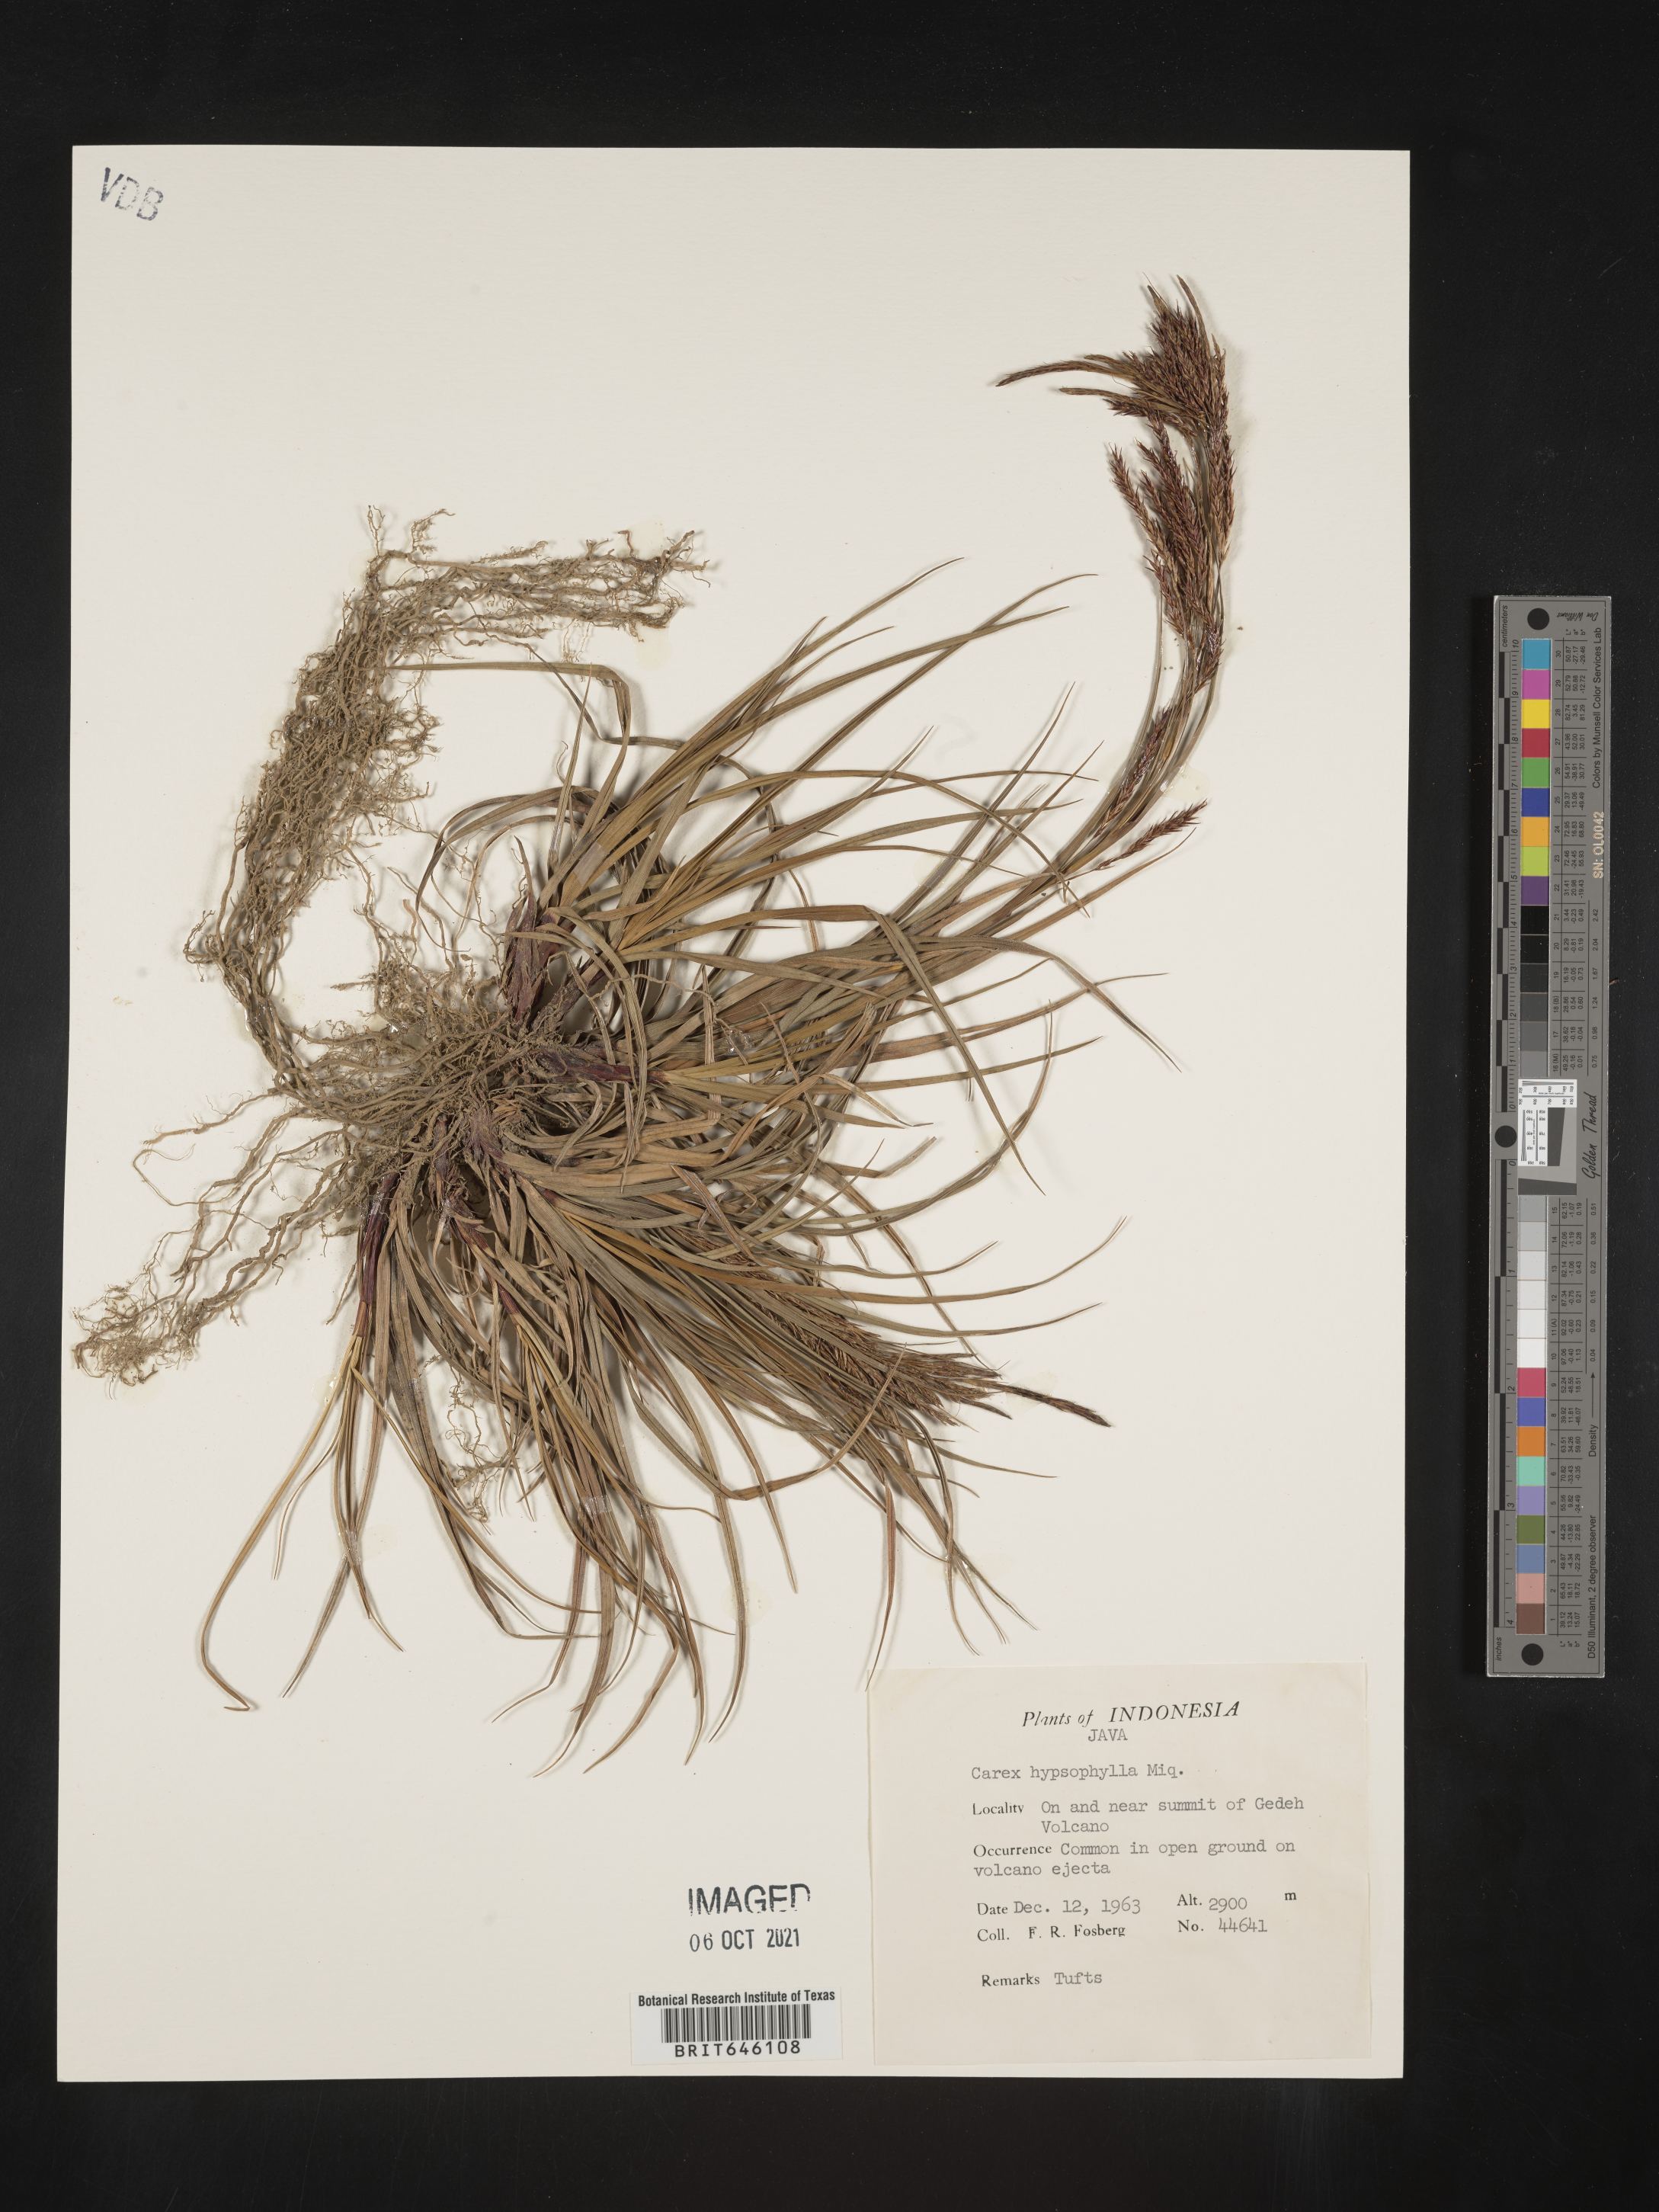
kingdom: Plantae
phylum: Tracheophyta
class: Liliopsida
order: Poales
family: Cyperaceae
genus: Carex
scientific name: Carex verticillata
